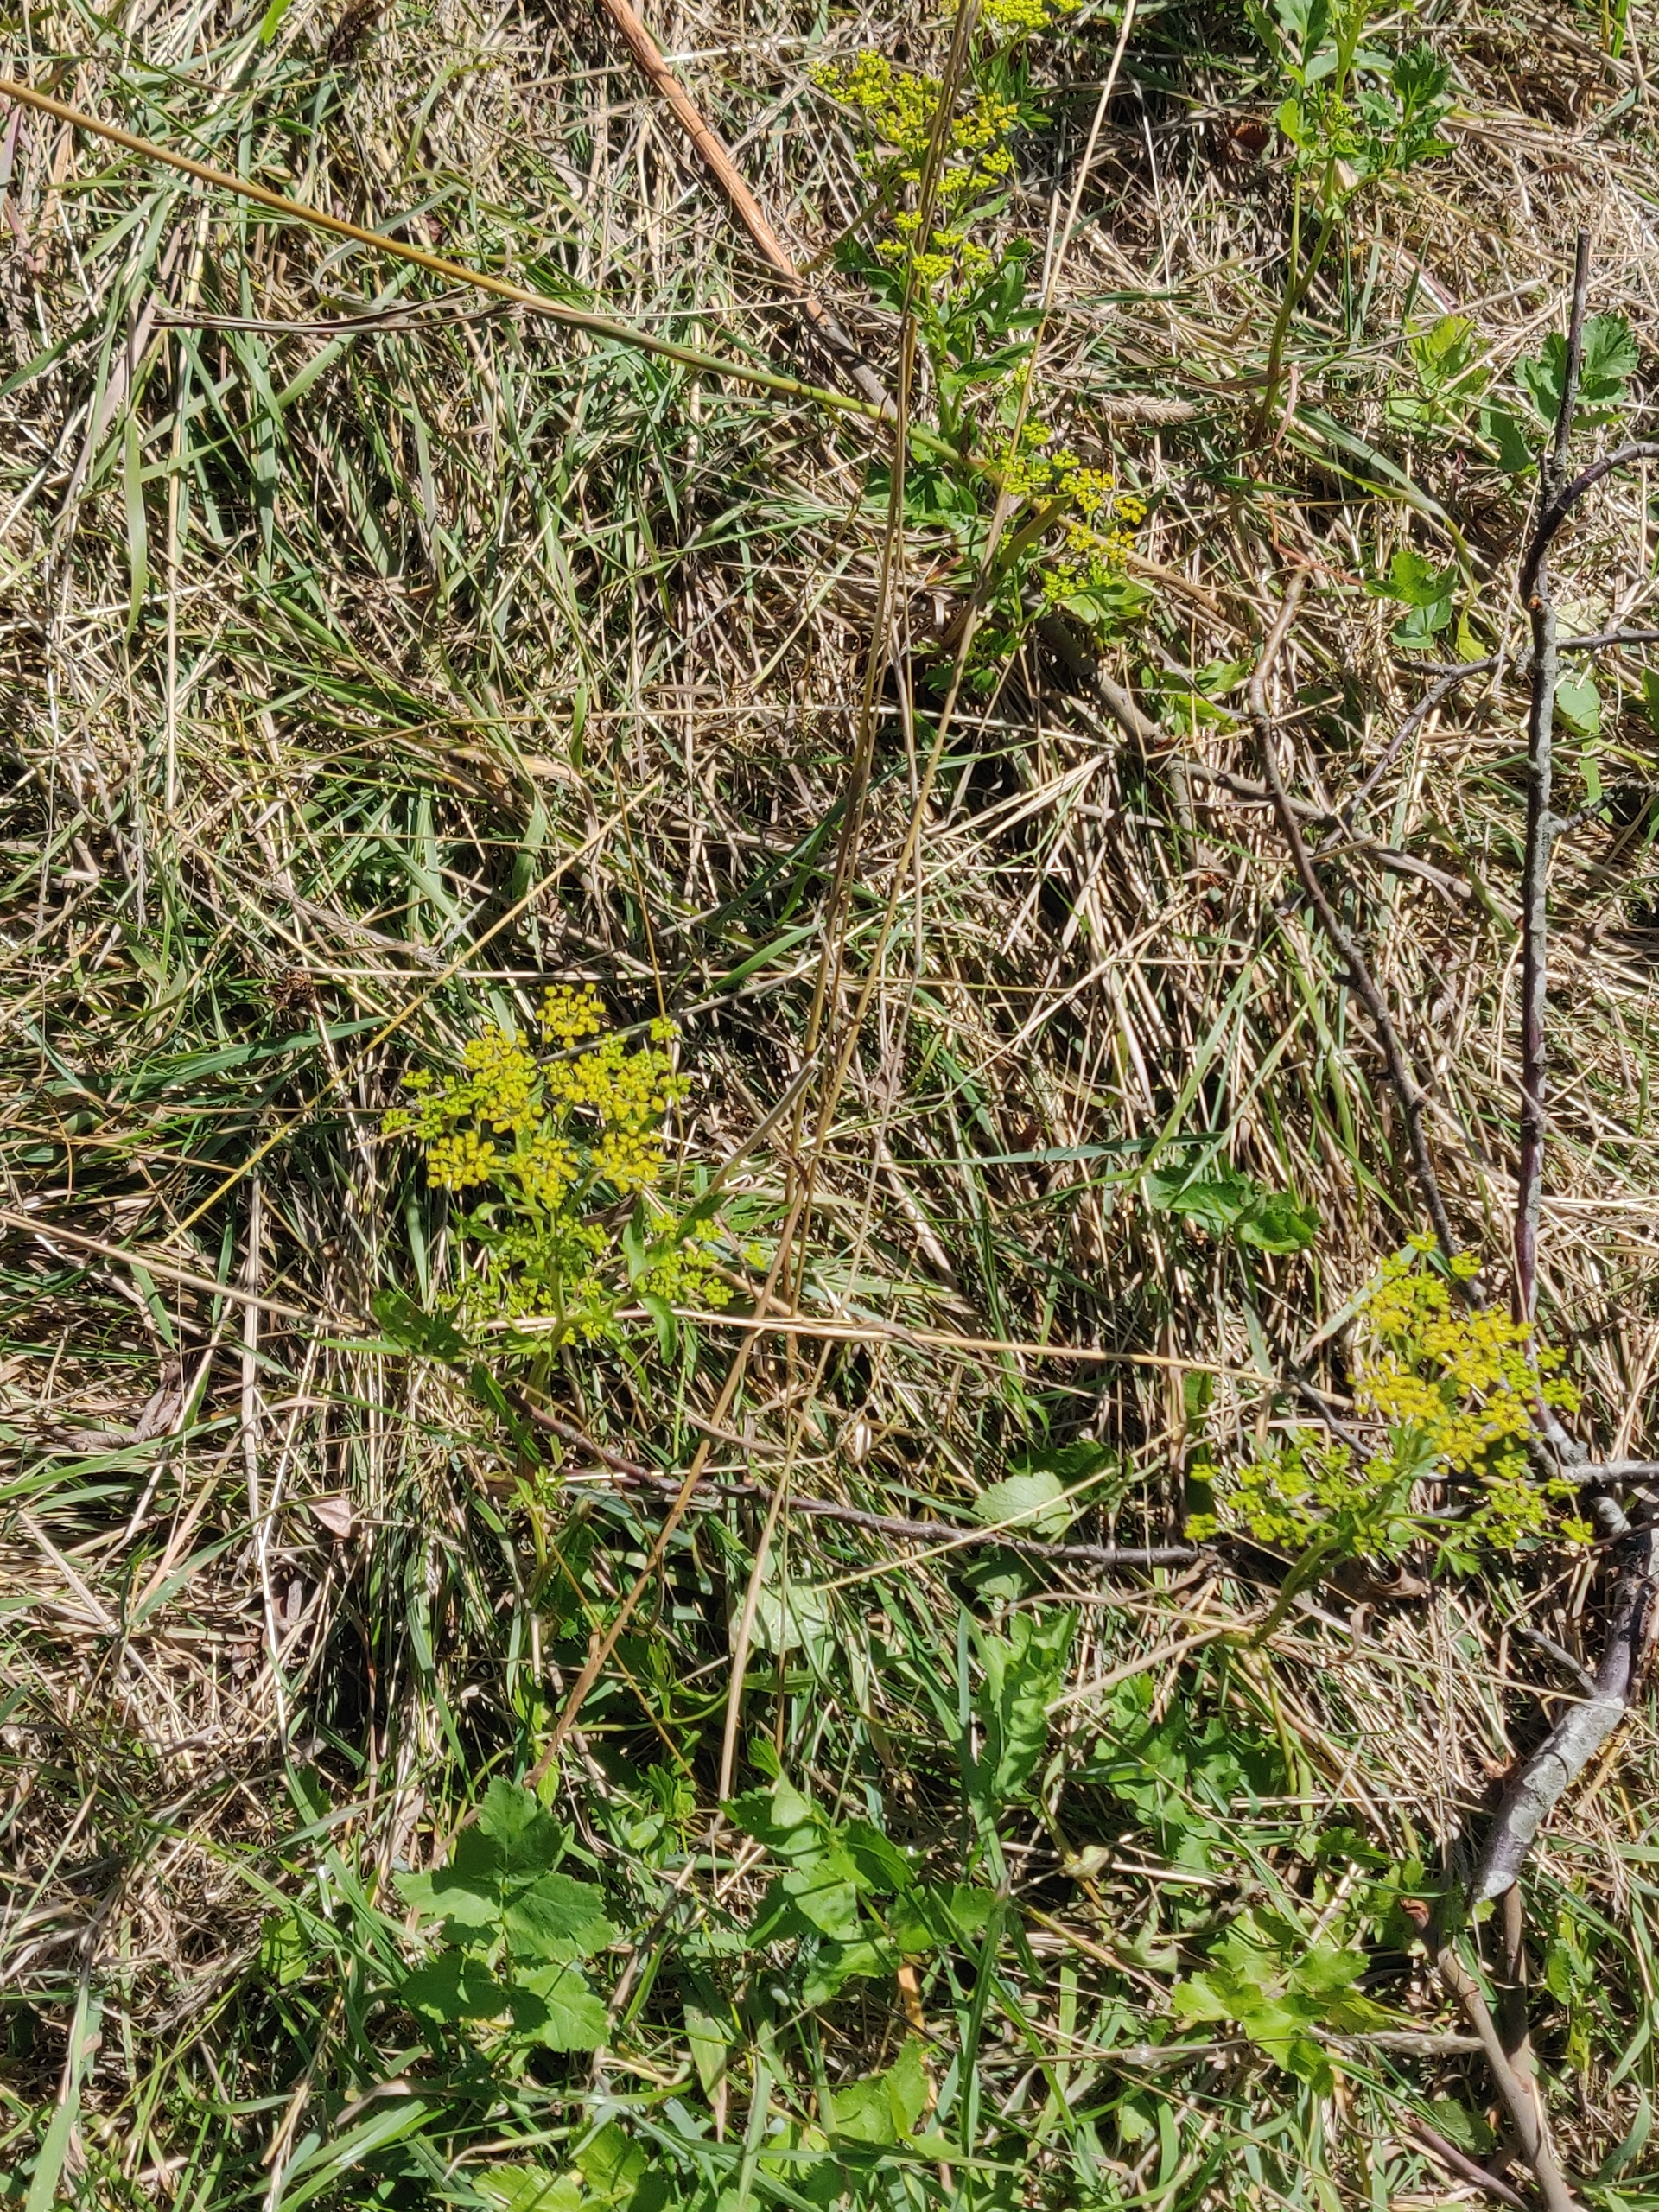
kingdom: Plantae
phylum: Tracheophyta
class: Magnoliopsida
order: Apiales
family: Apiaceae
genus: Pastinaca
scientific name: Pastinaca sativa
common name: Pastinak
